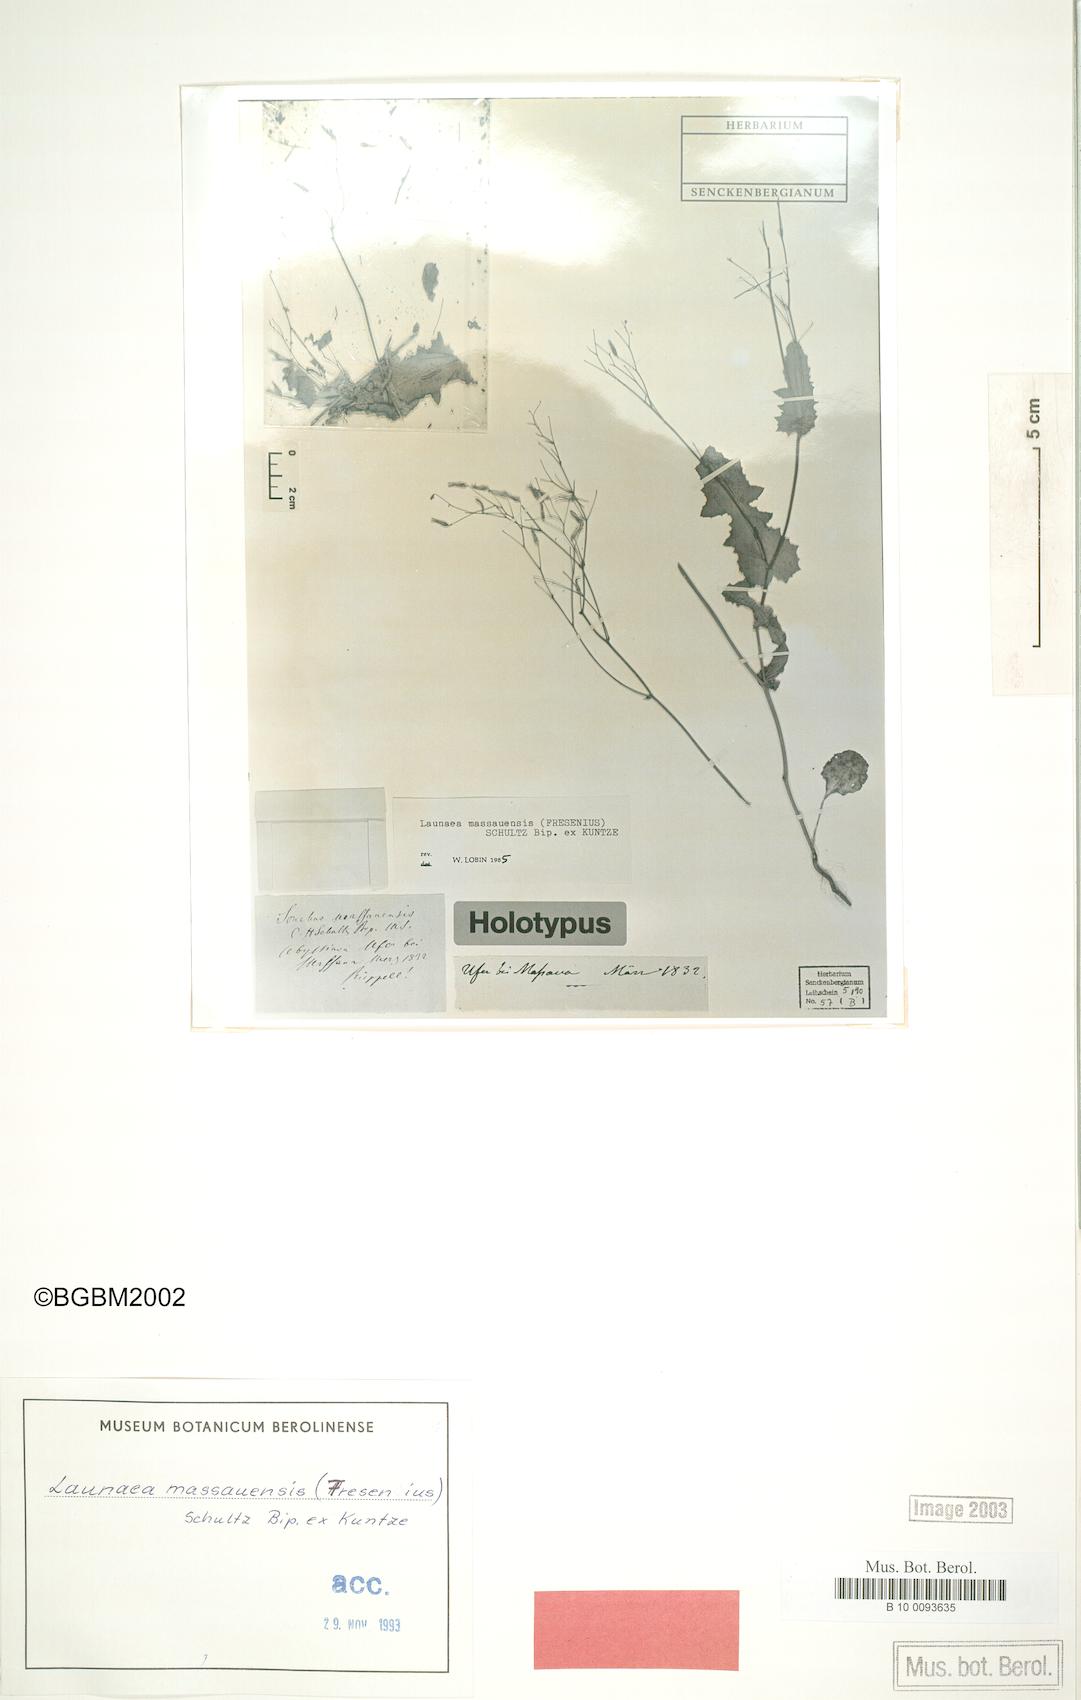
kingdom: Plantae
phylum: Tracheophyta
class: Magnoliopsida
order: Asterales
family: Asteraceae
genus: Launaea
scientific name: Launaea massauensis
